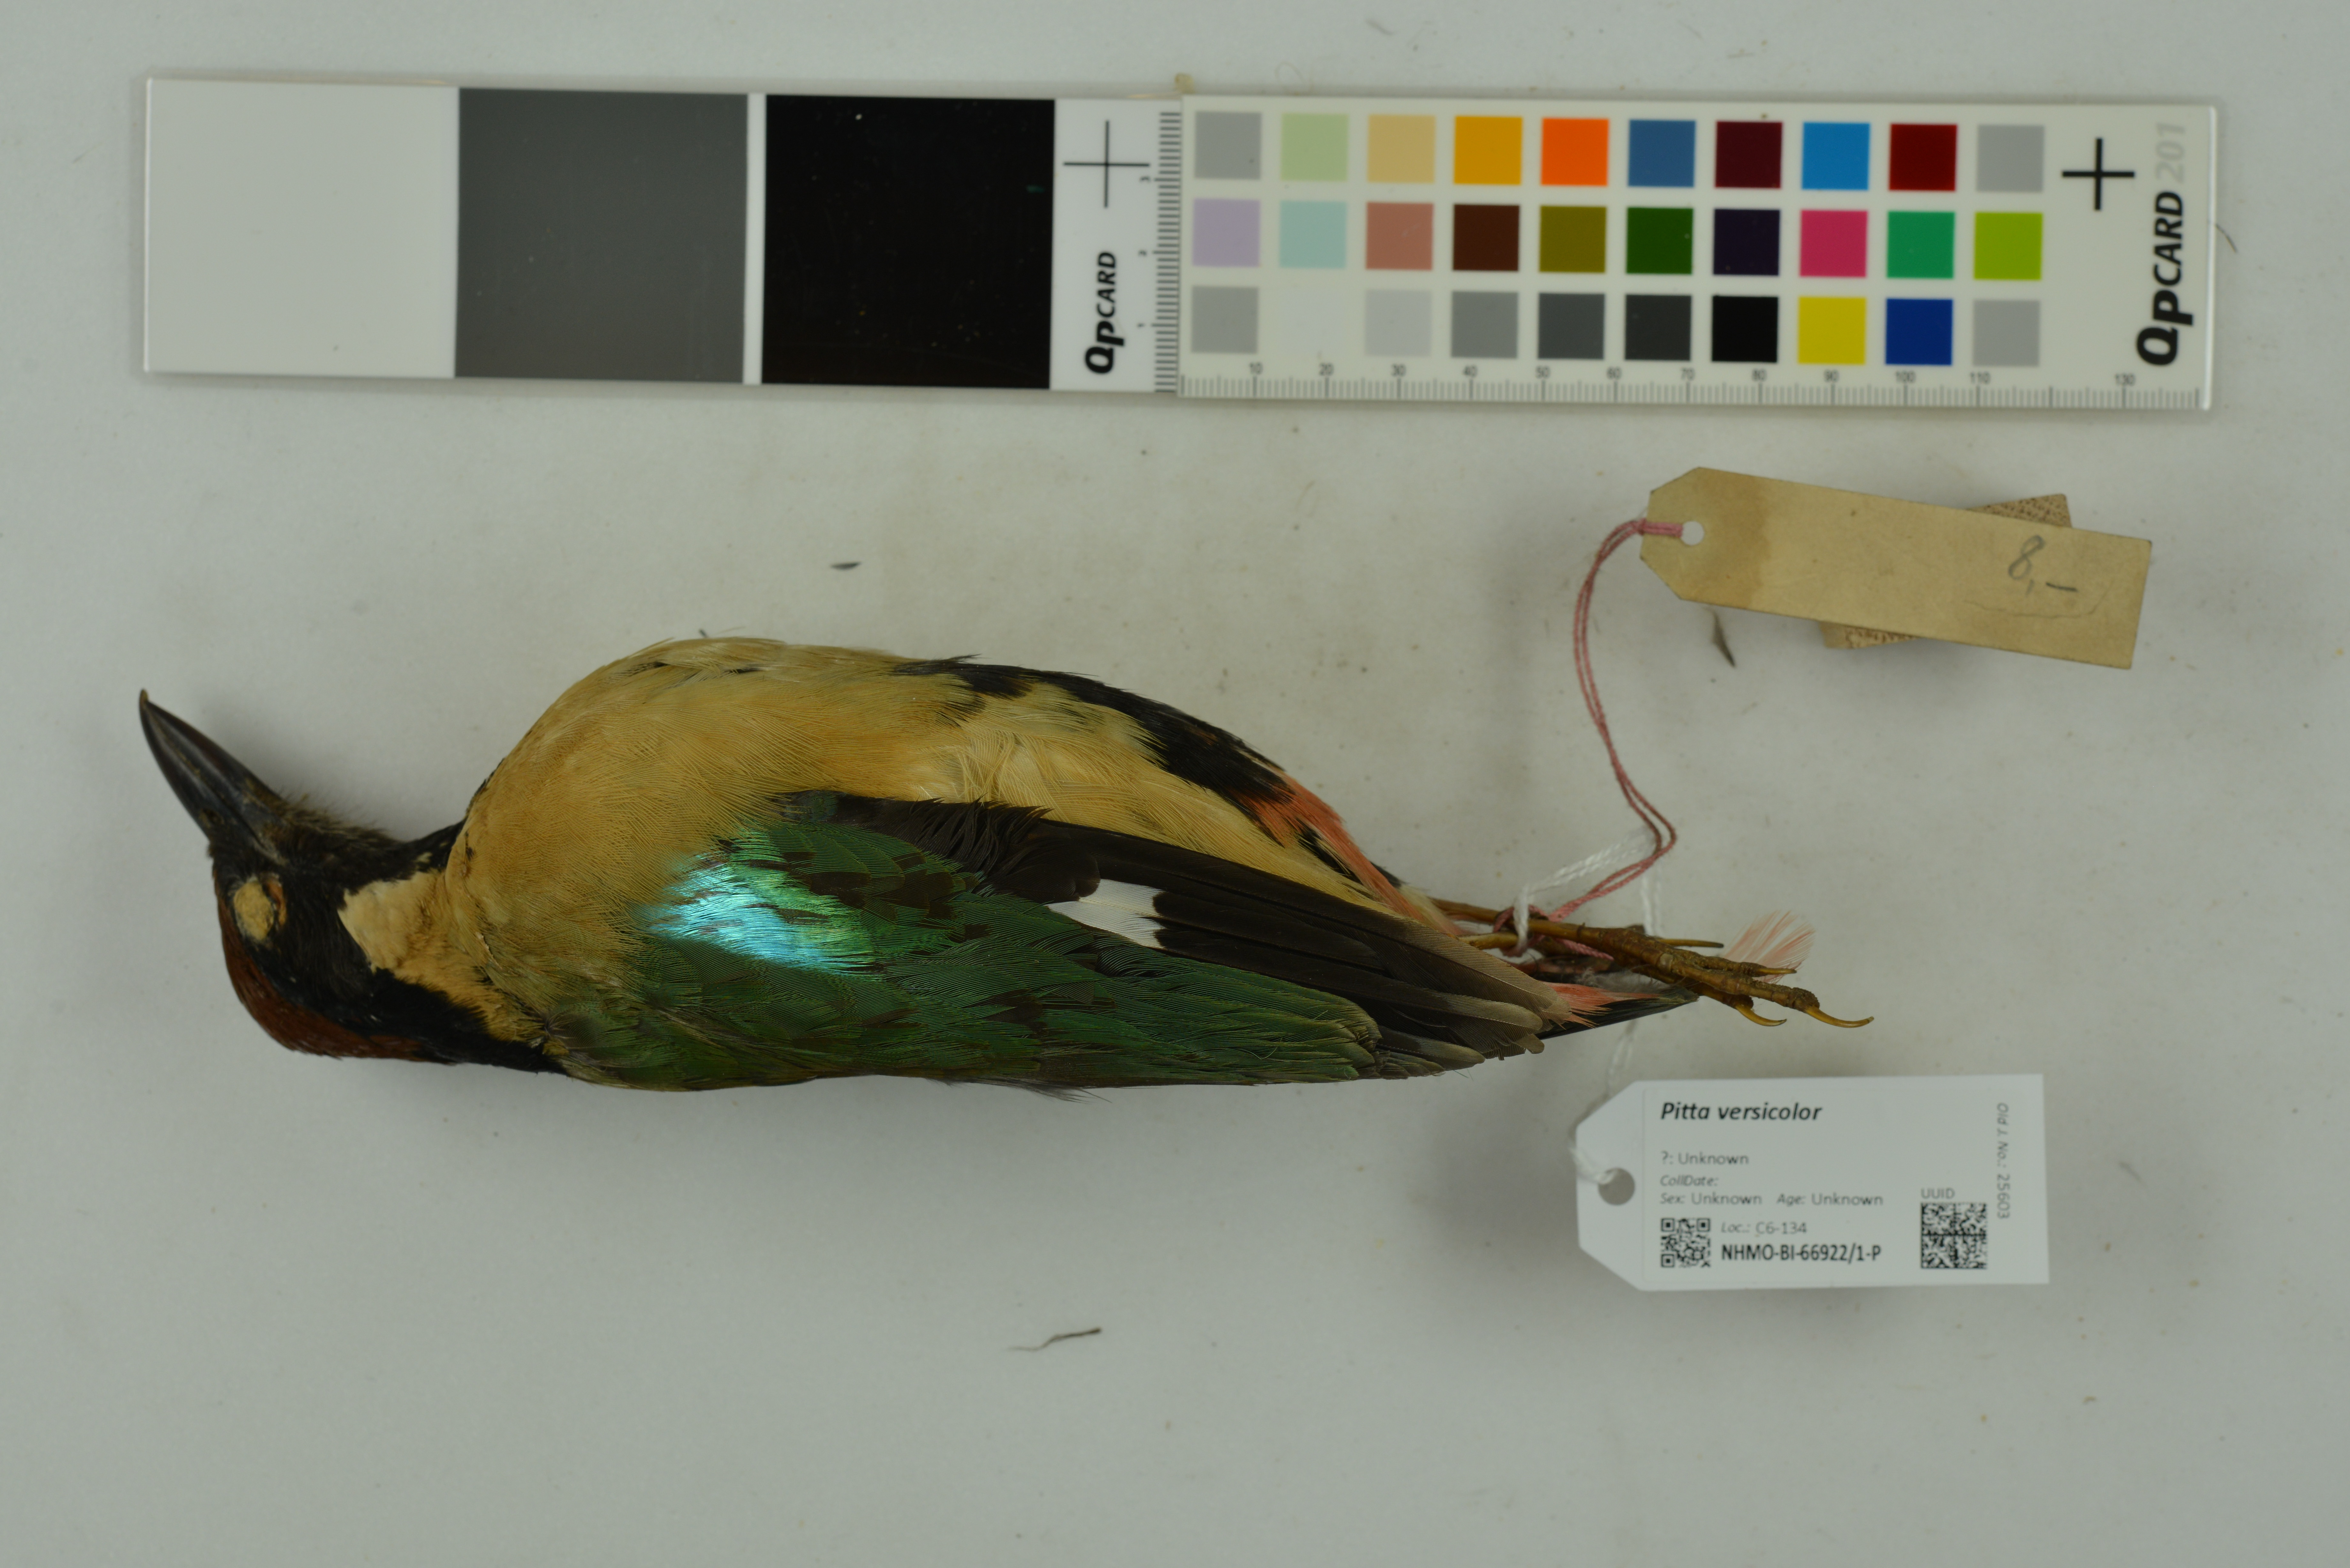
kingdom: Animalia
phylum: Chordata
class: Aves
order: Passeriformes
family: Pittidae
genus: Pitta
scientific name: Pitta versicolor
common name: Noisy pitta
